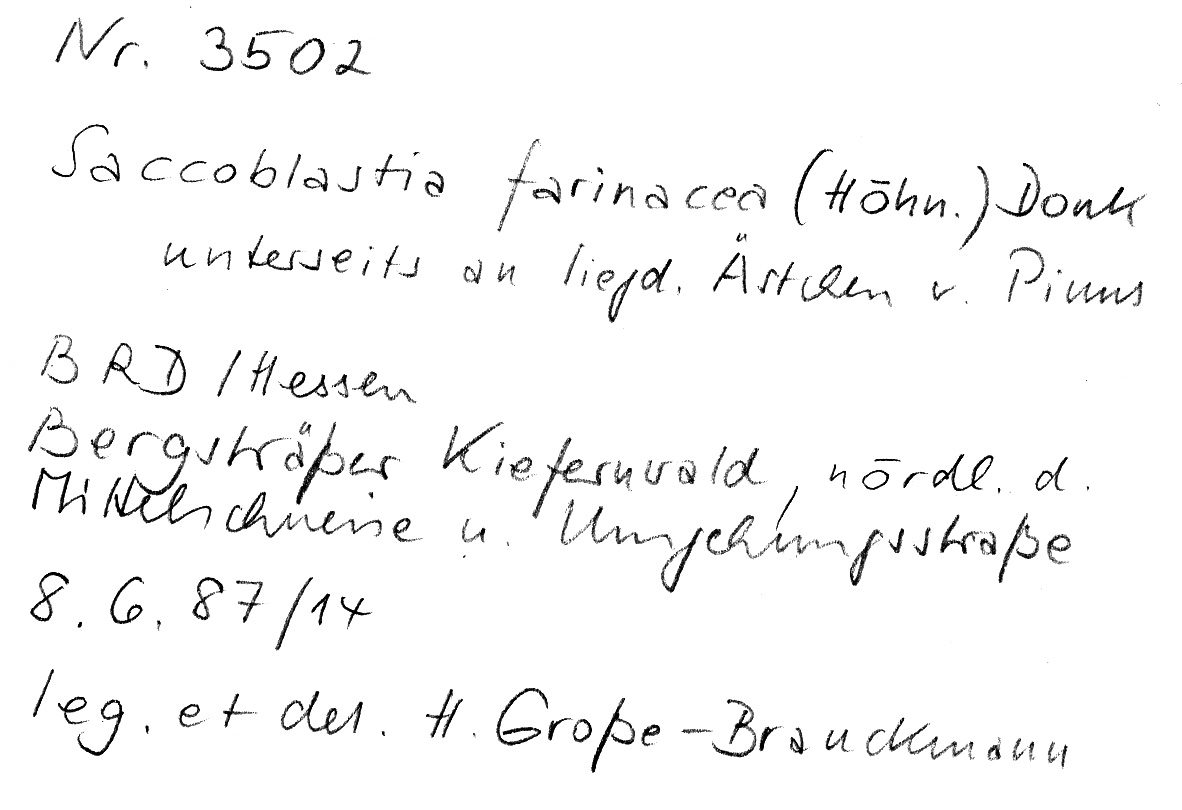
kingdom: Plantae
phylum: Tracheophyta
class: Pinopsida
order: Pinales
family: Pinaceae
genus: Pinus
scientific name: Pinus
